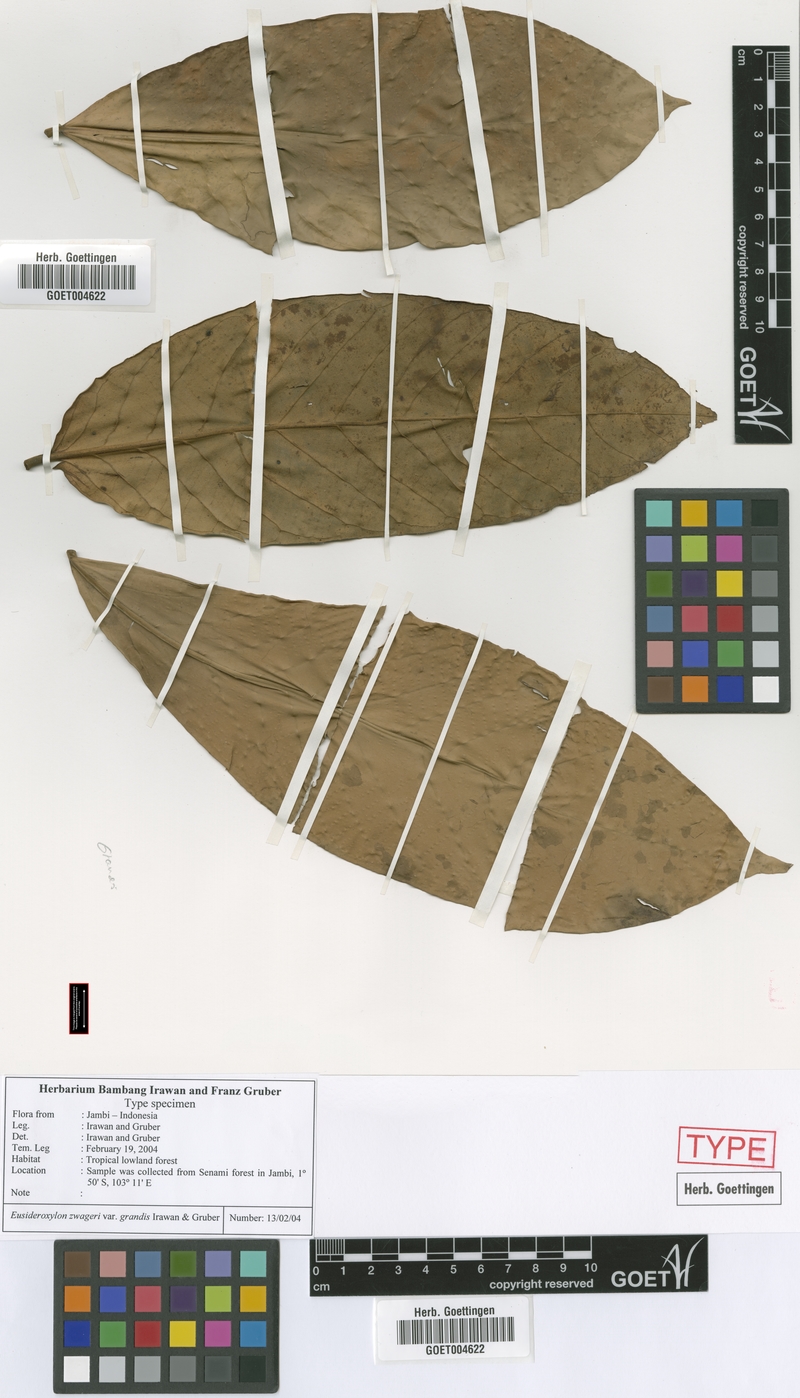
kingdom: Plantae
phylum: Tracheophyta
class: Magnoliopsida
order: Laurales
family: Lauraceae
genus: Eusideroxylon
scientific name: Eusideroxylon zwageri
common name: Borneo ironwood
